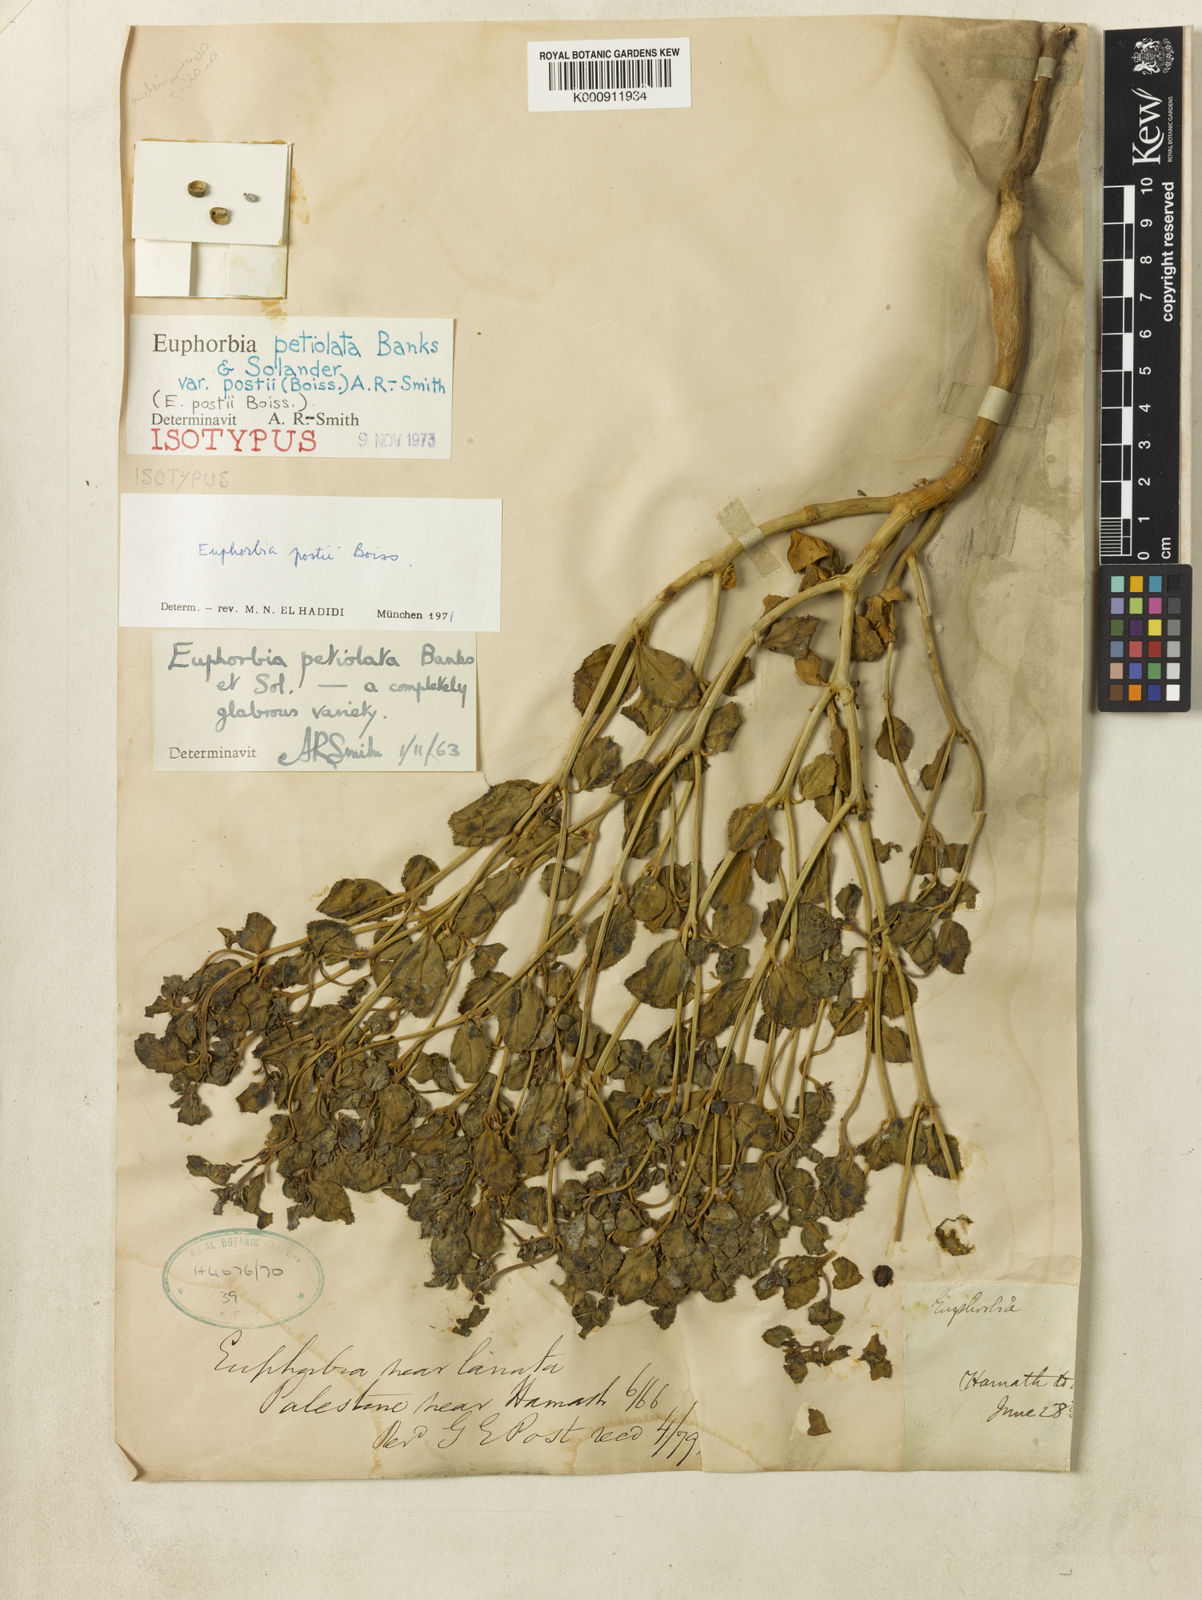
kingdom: Plantae
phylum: Tracheophyta
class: Magnoliopsida
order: Malpighiales
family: Euphorbiaceae
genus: Euphorbia
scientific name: Euphorbia
